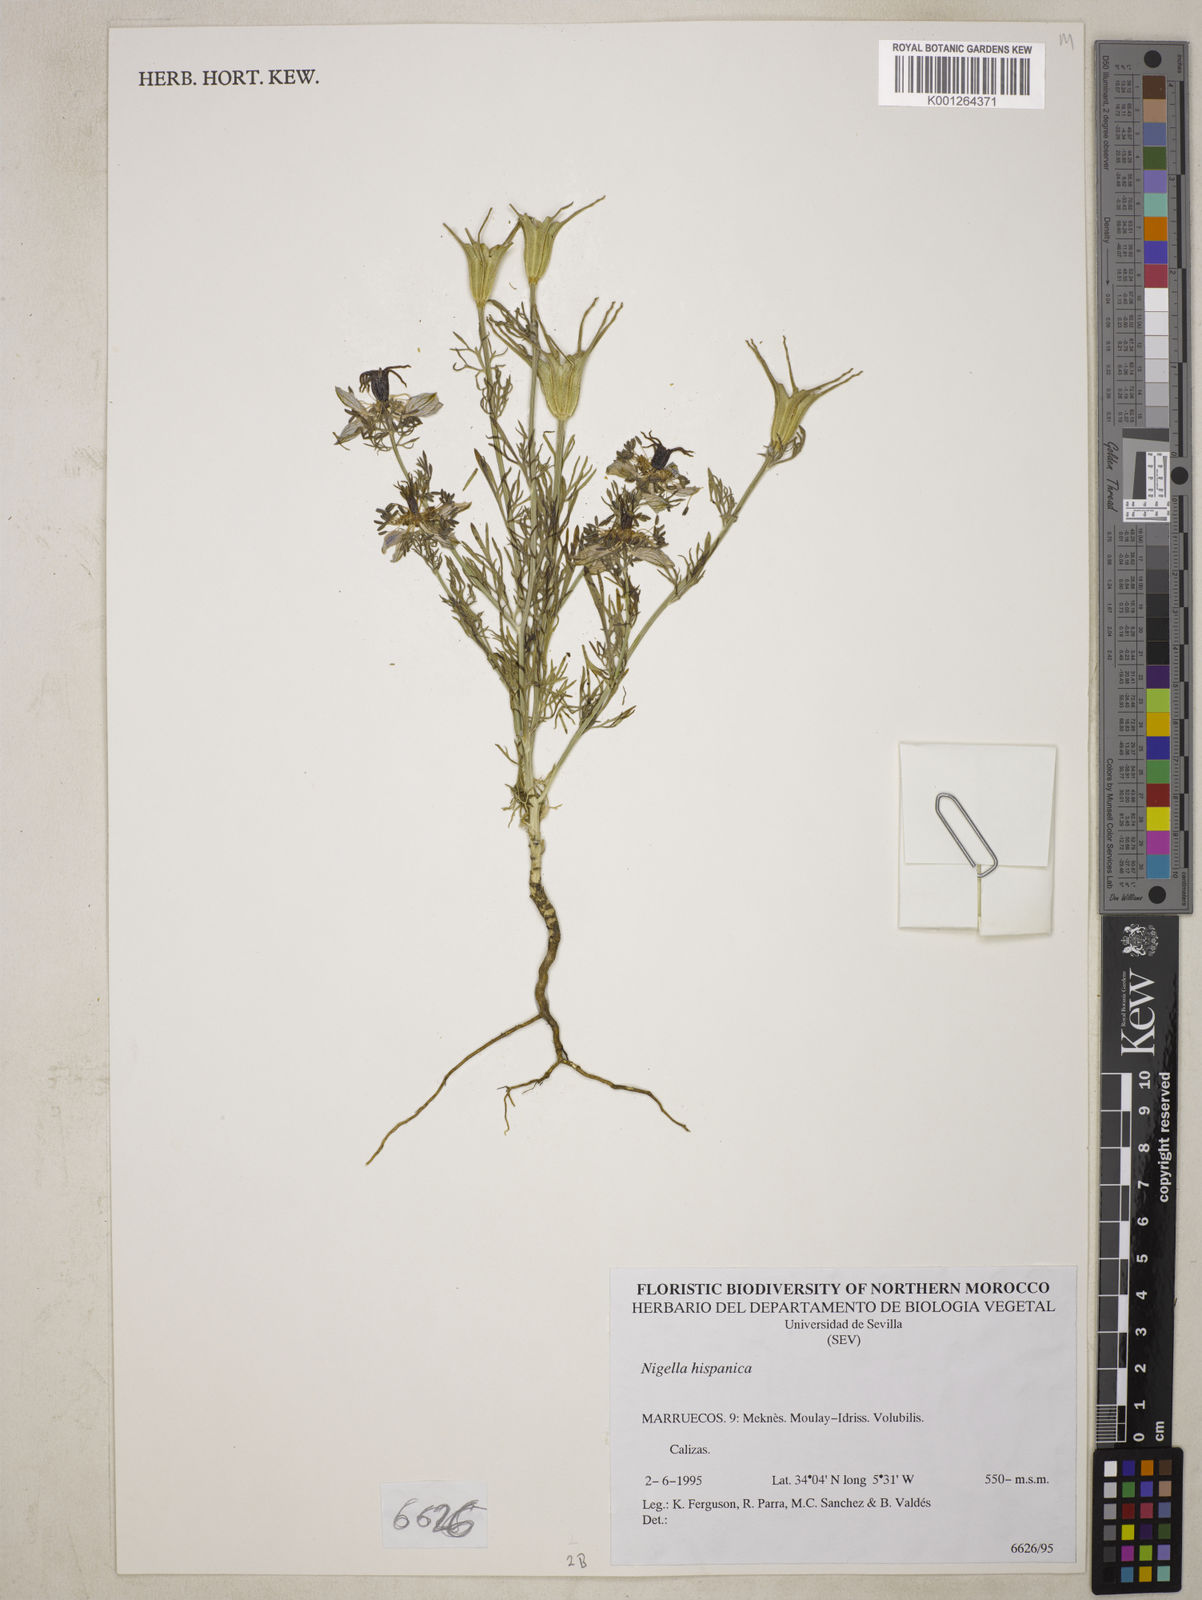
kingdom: Plantae
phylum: Tracheophyta
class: Magnoliopsida
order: Ranunculales
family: Ranunculaceae
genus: Nigella
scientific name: Nigella hispanica
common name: Fennel-flower
